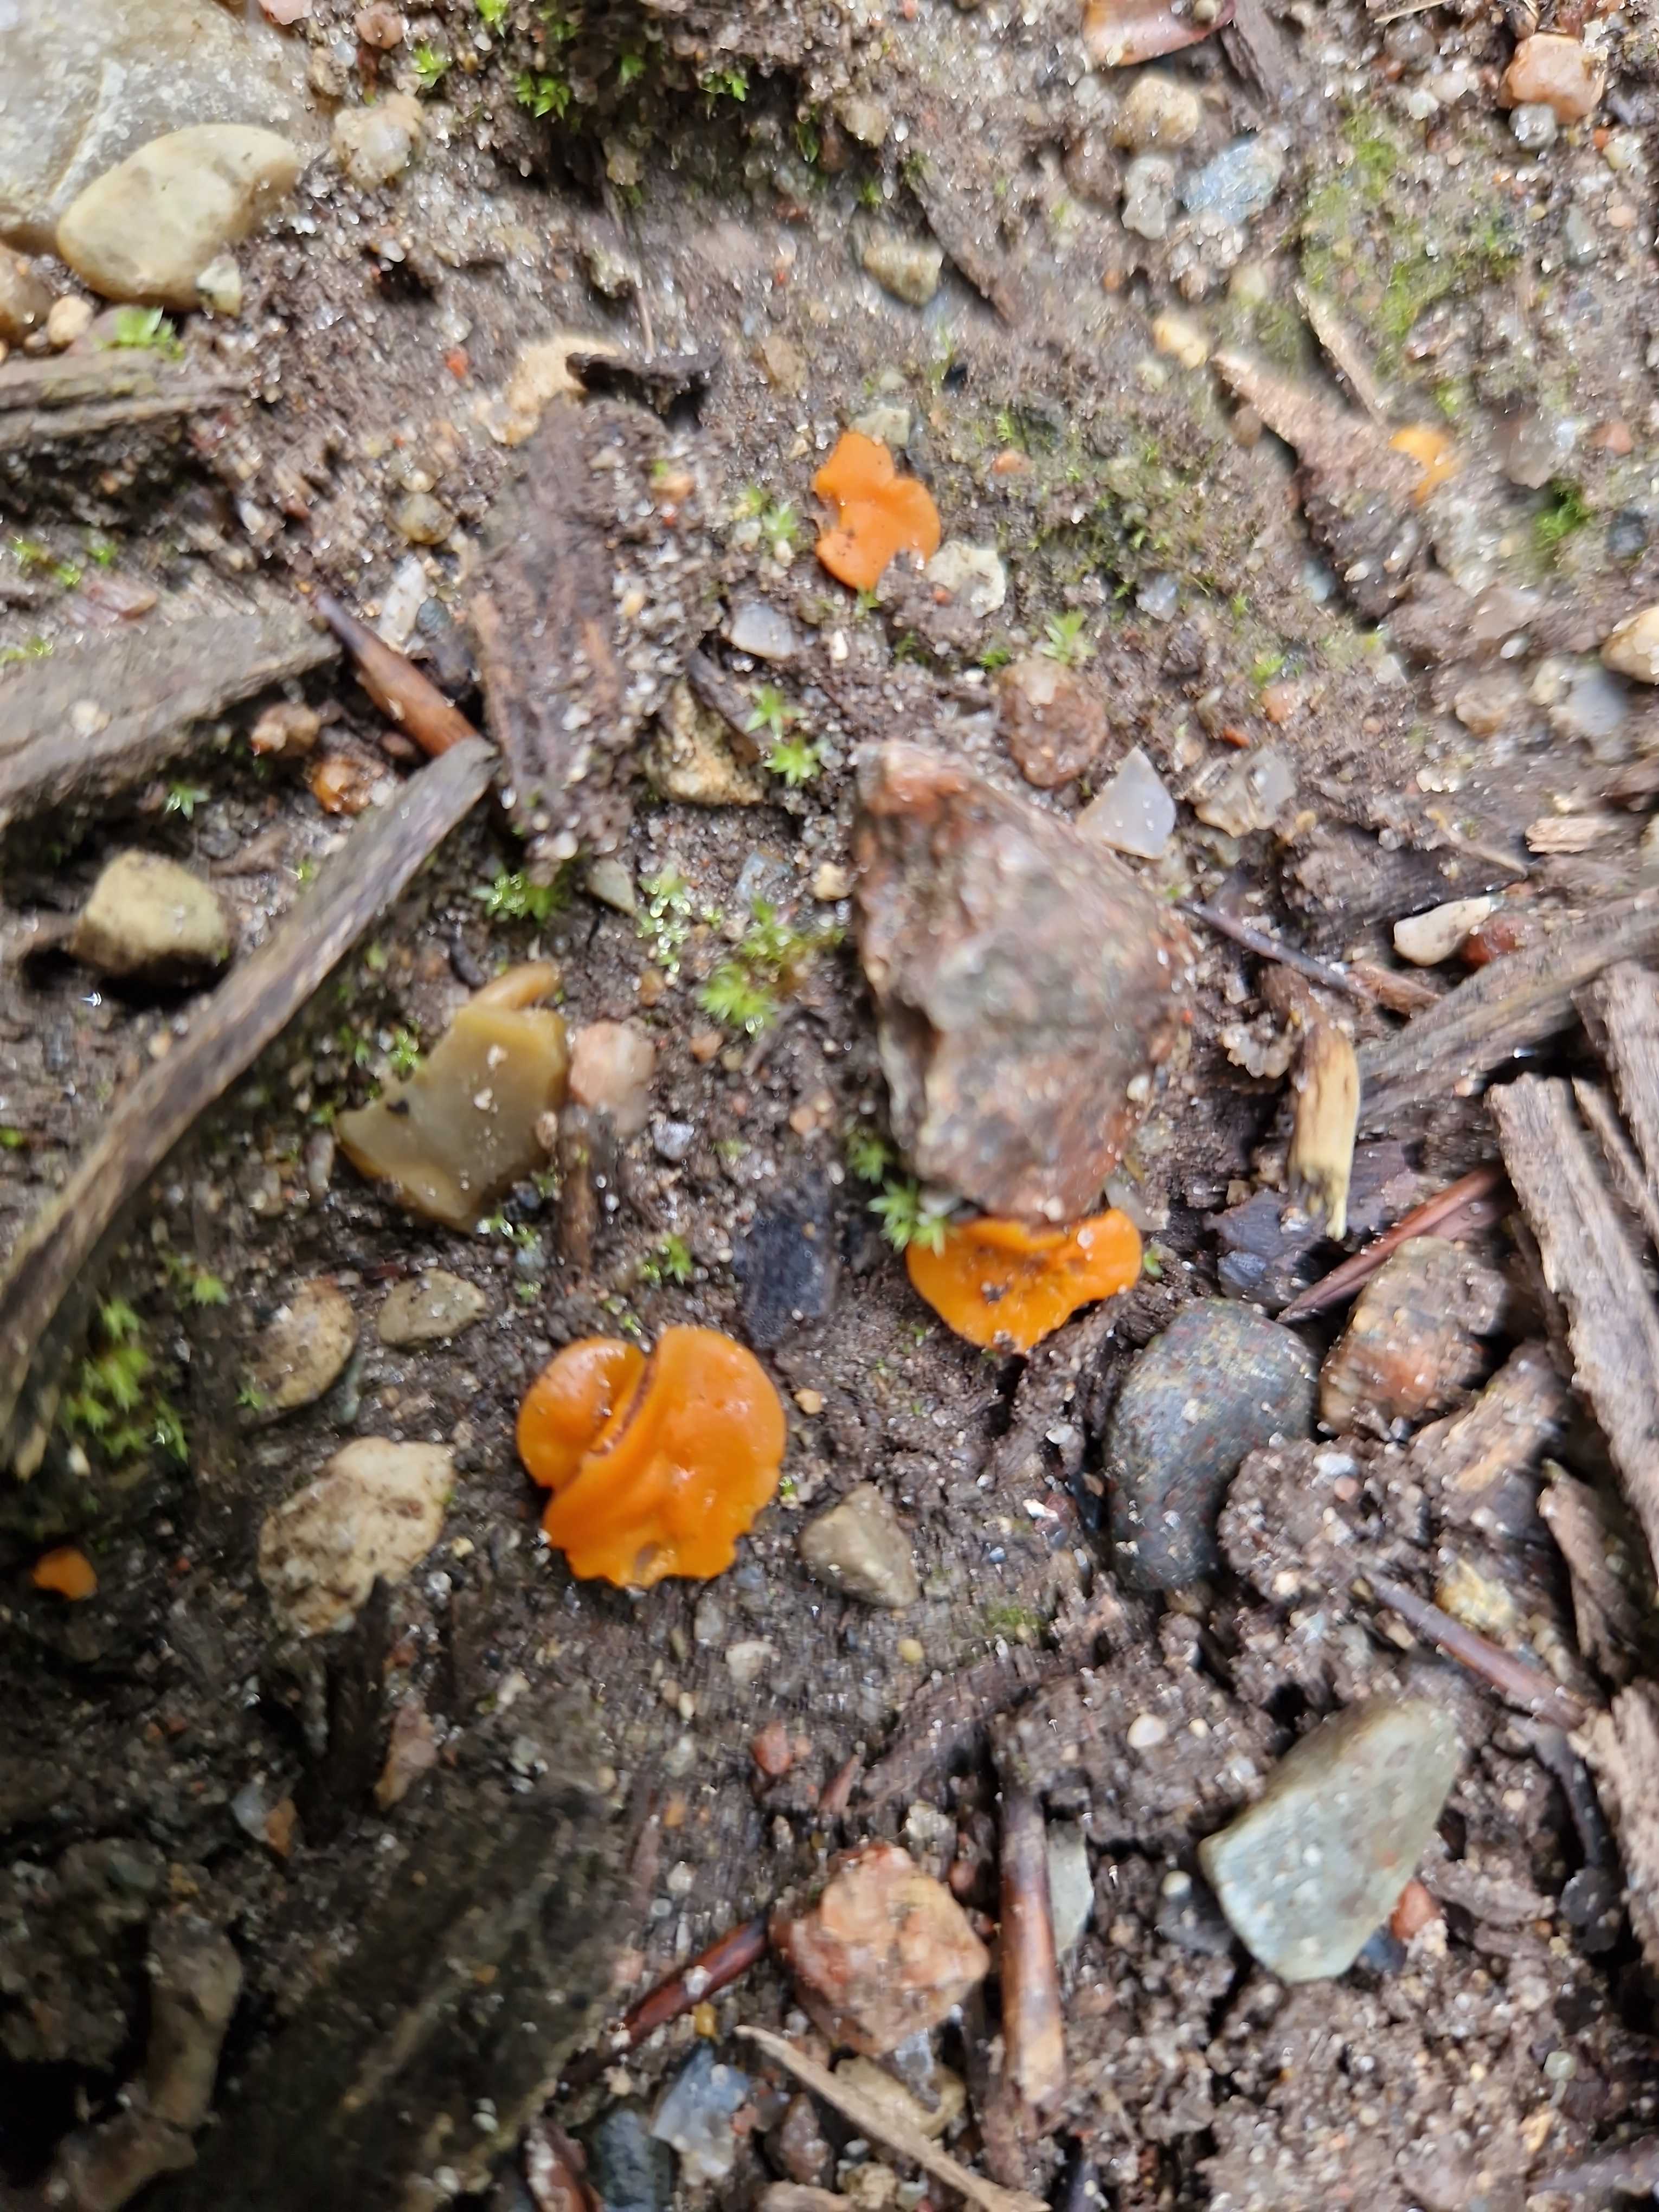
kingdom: Fungi
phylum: Ascomycota
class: Pezizomycetes
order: Pezizales
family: Pyronemataceae
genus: Melastiza
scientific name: Melastiza cornubiensis
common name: mørkrandet rødbæger
